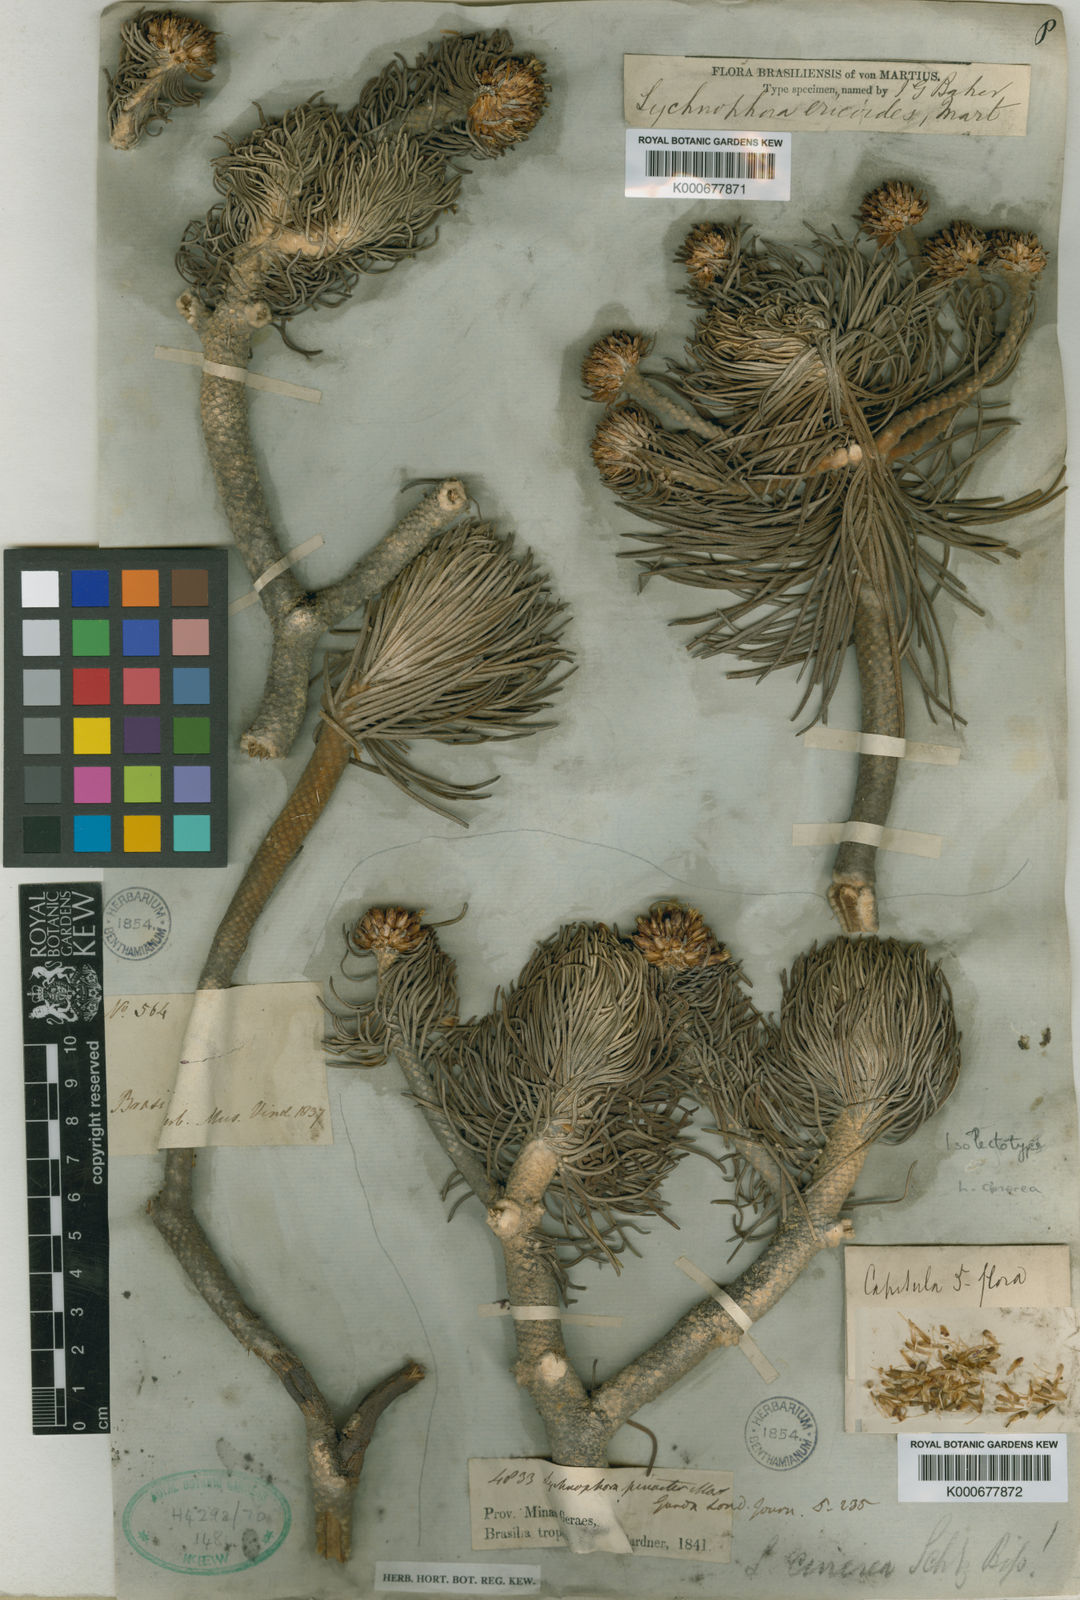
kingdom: Plantae
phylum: Tracheophyta
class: Magnoliopsida
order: Asterales
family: Asteraceae
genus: Lychnophora
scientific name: Lychnophora ericoides
